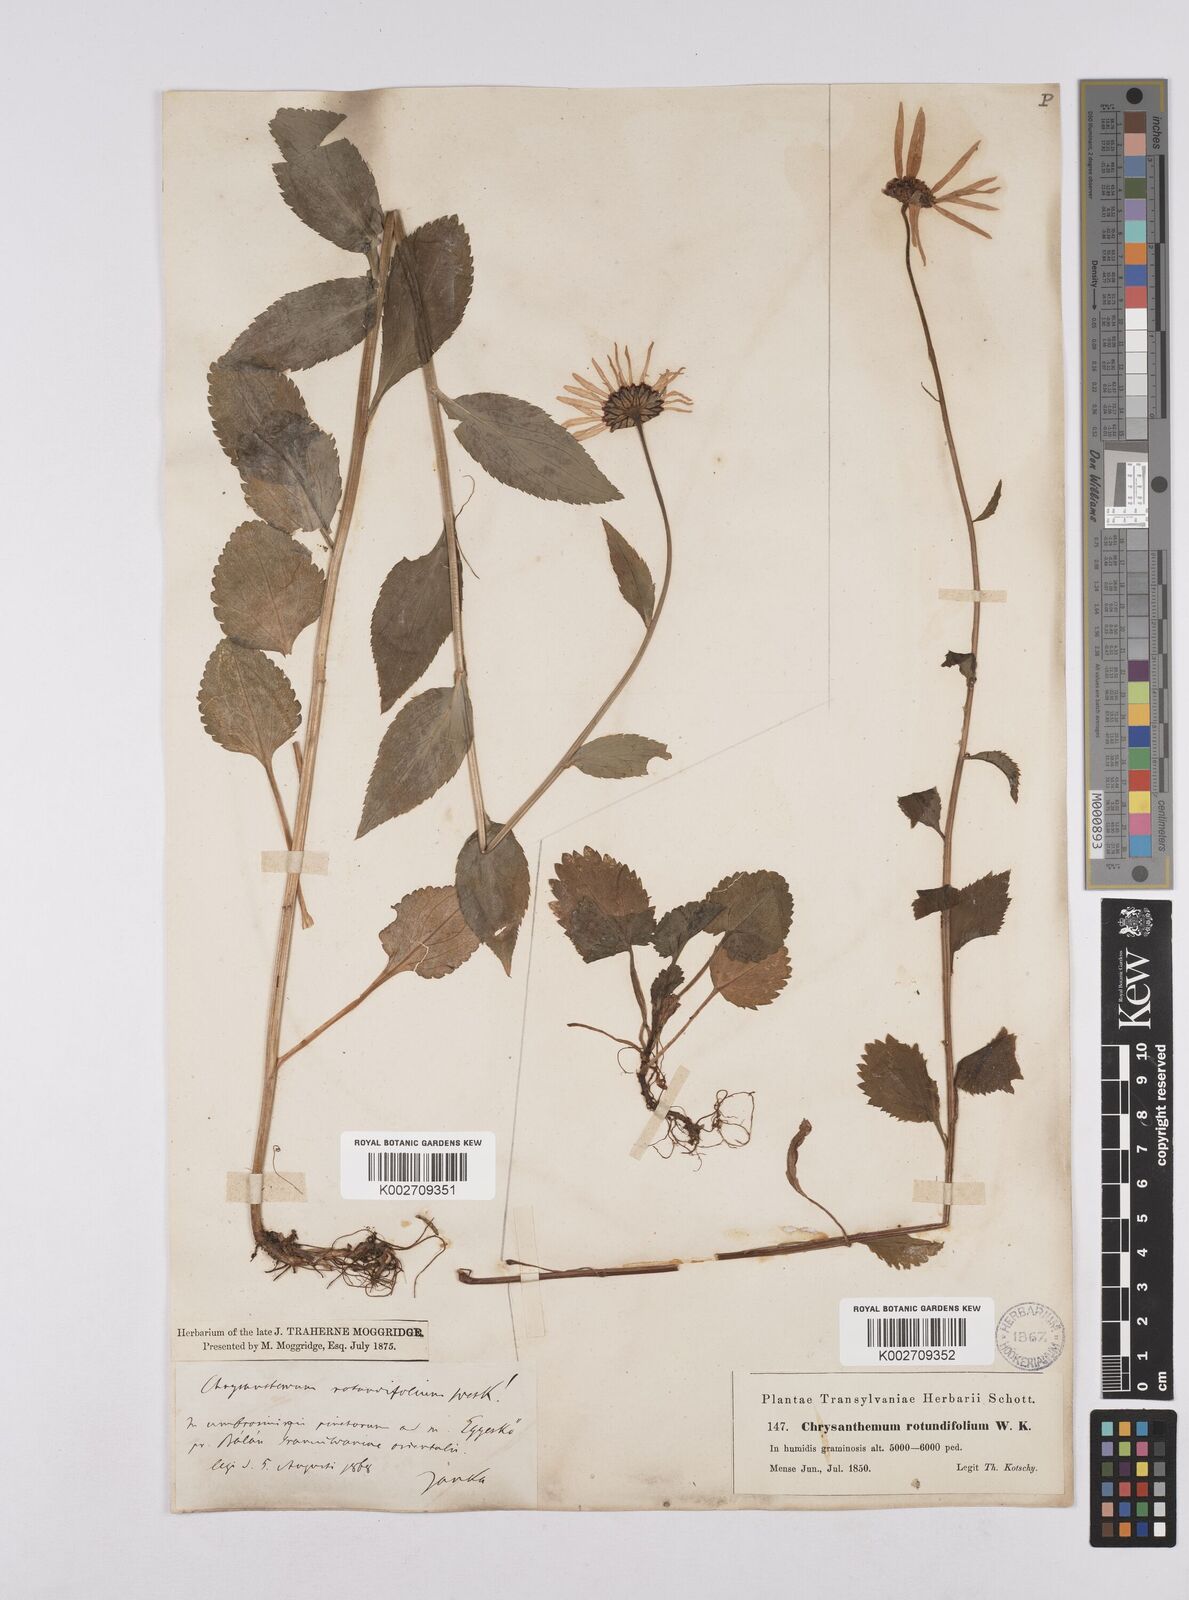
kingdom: Plantae
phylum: Tracheophyta
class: Magnoliopsida
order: Asterales
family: Asteraceae
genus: Leucanthemum
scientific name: Leucanthemum rotundifolium
